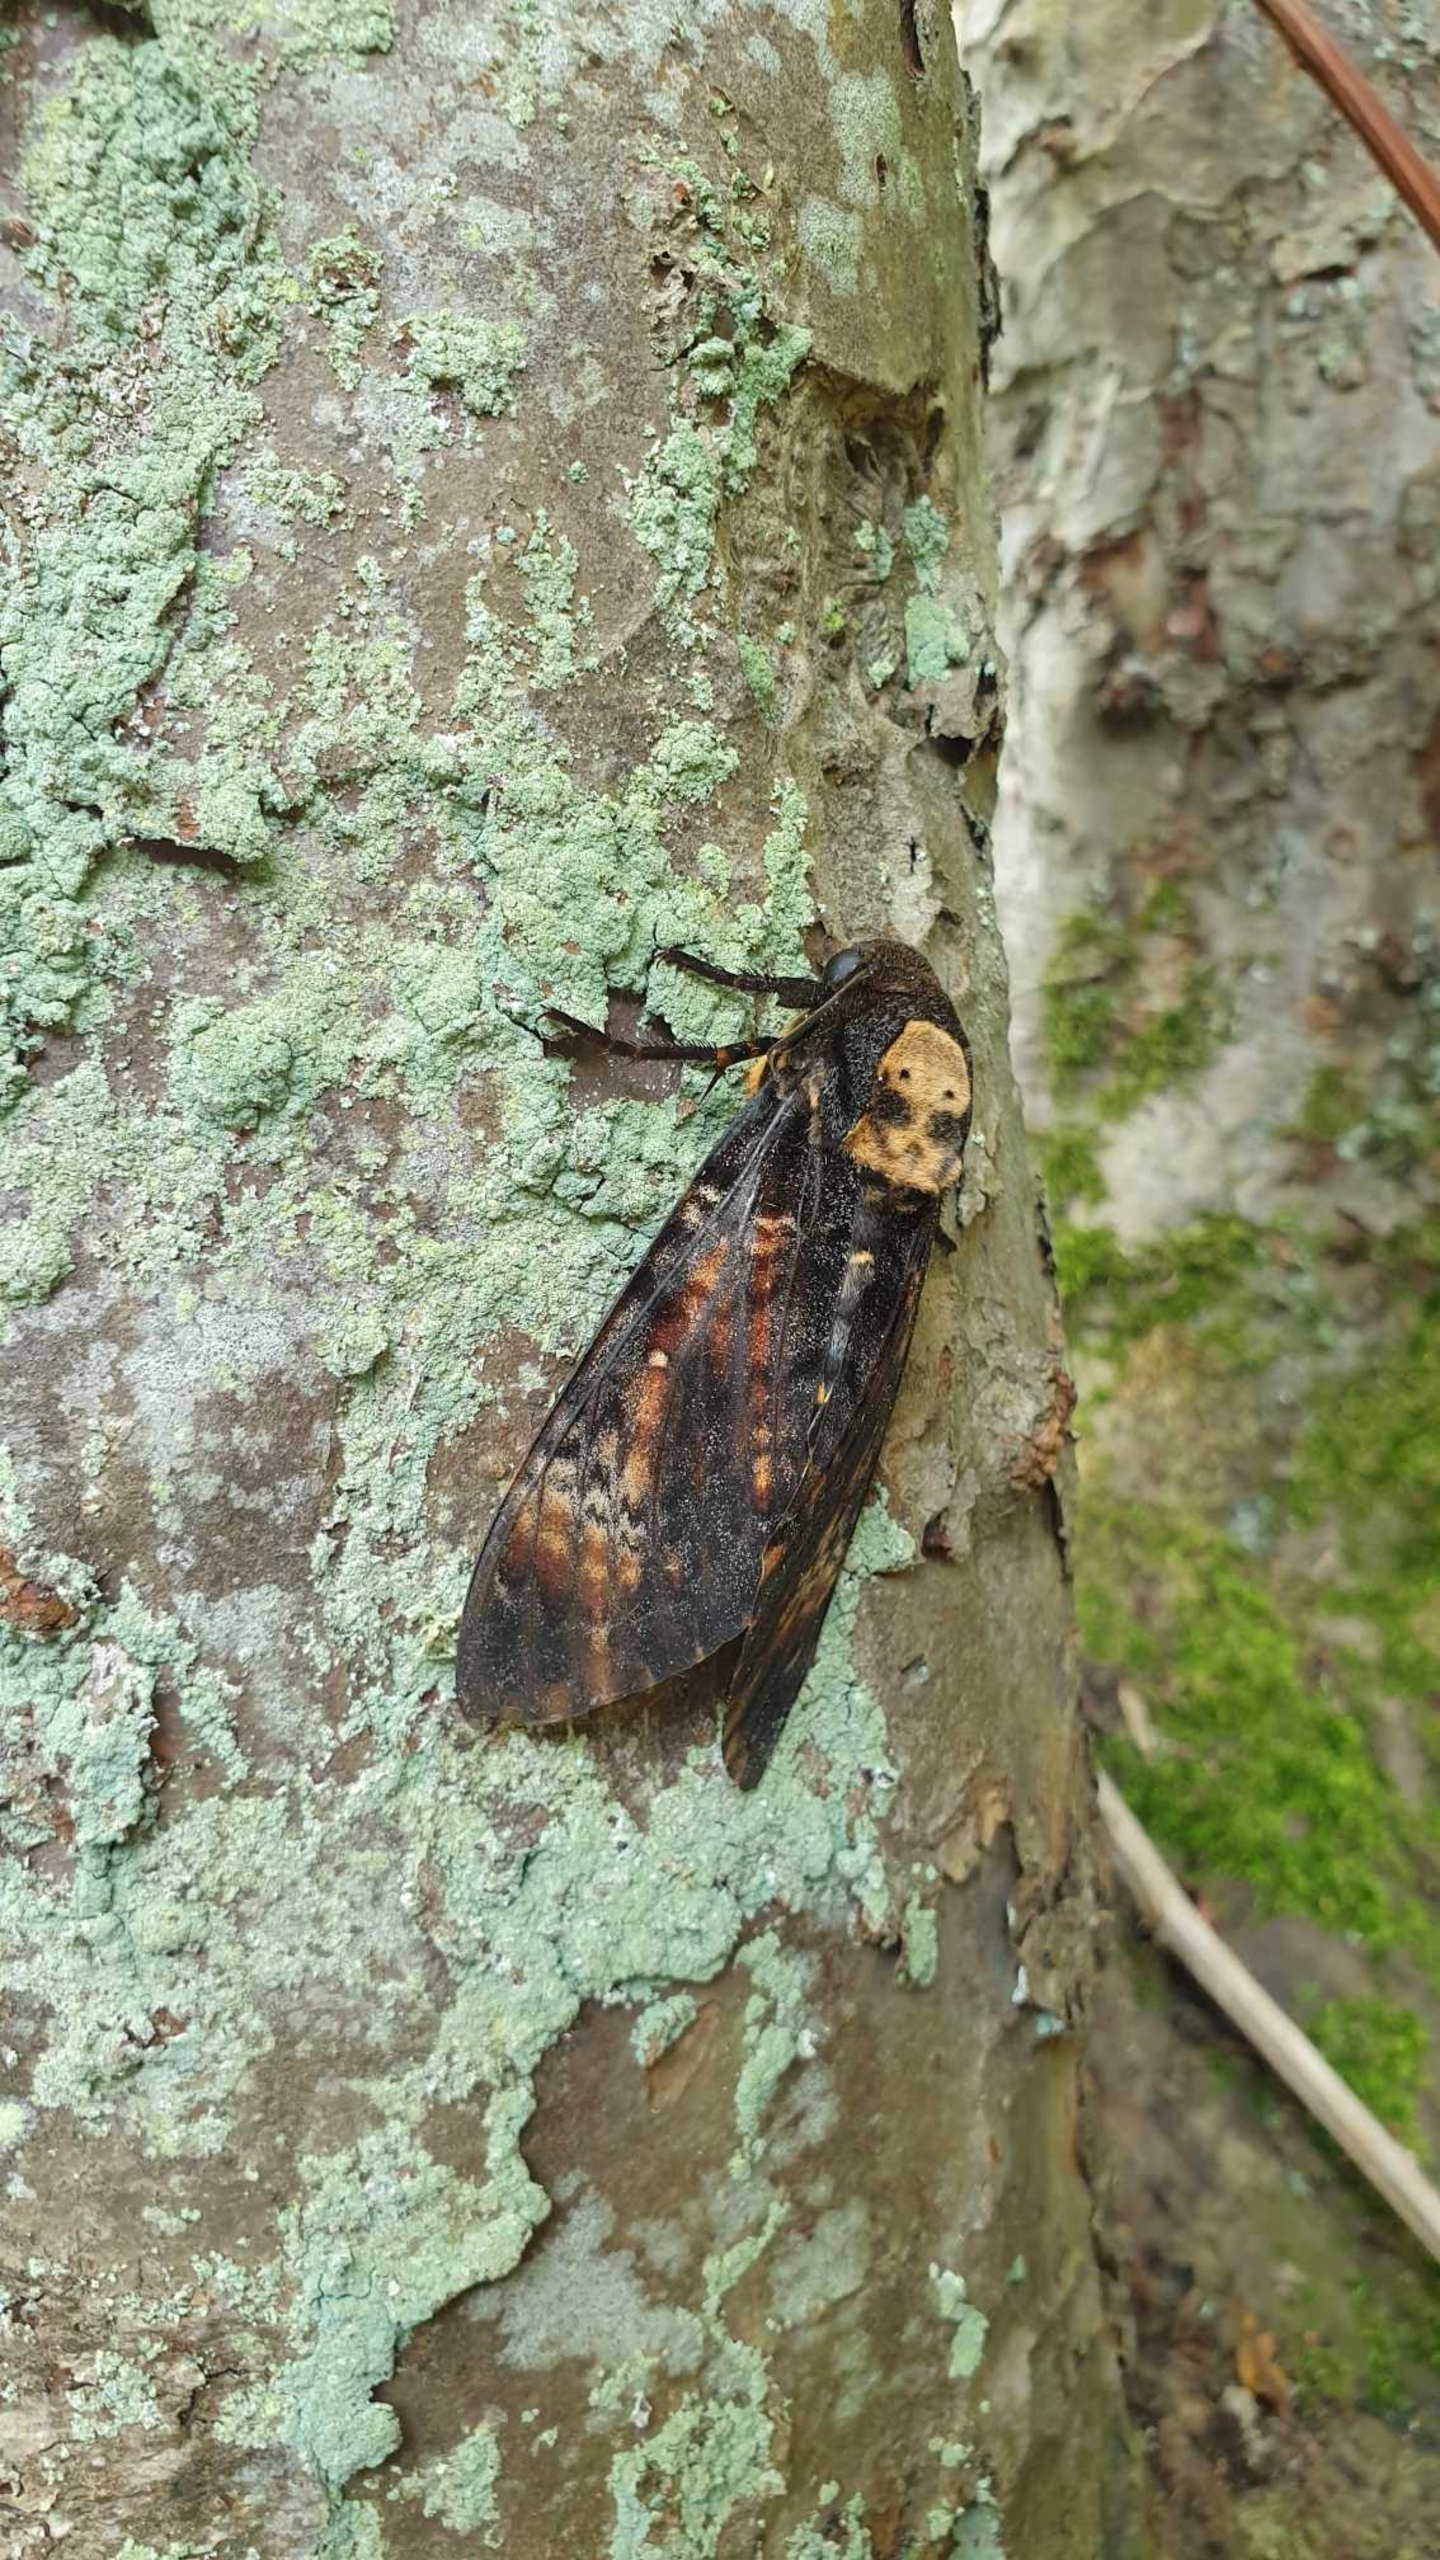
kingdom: Animalia
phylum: Arthropoda
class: Insecta
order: Lepidoptera
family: Sphingidae
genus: Acherontia
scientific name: Acherontia atropos
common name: Dødningehoved
